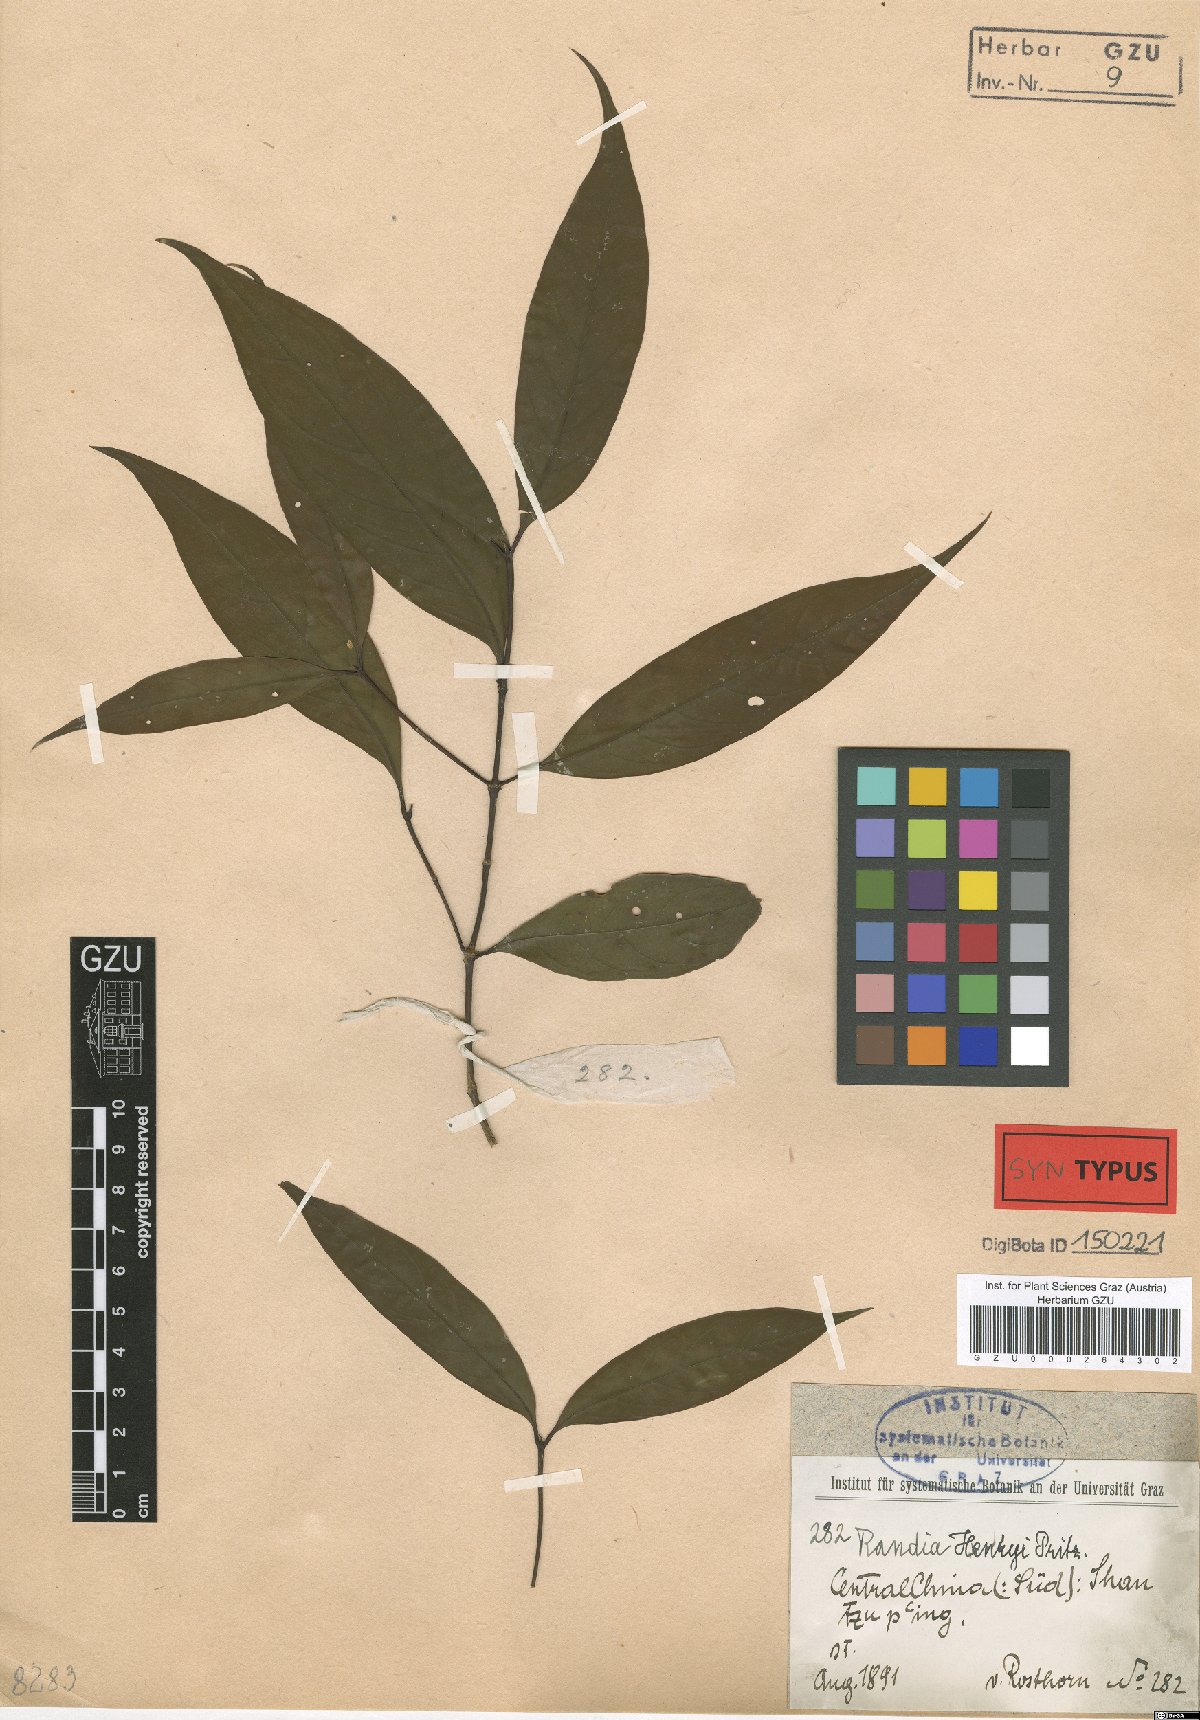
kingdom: Plantae
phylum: Tracheophyta
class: Magnoliopsida
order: Gentianales
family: Rubiaceae
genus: Aidia
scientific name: Aidia henryi
